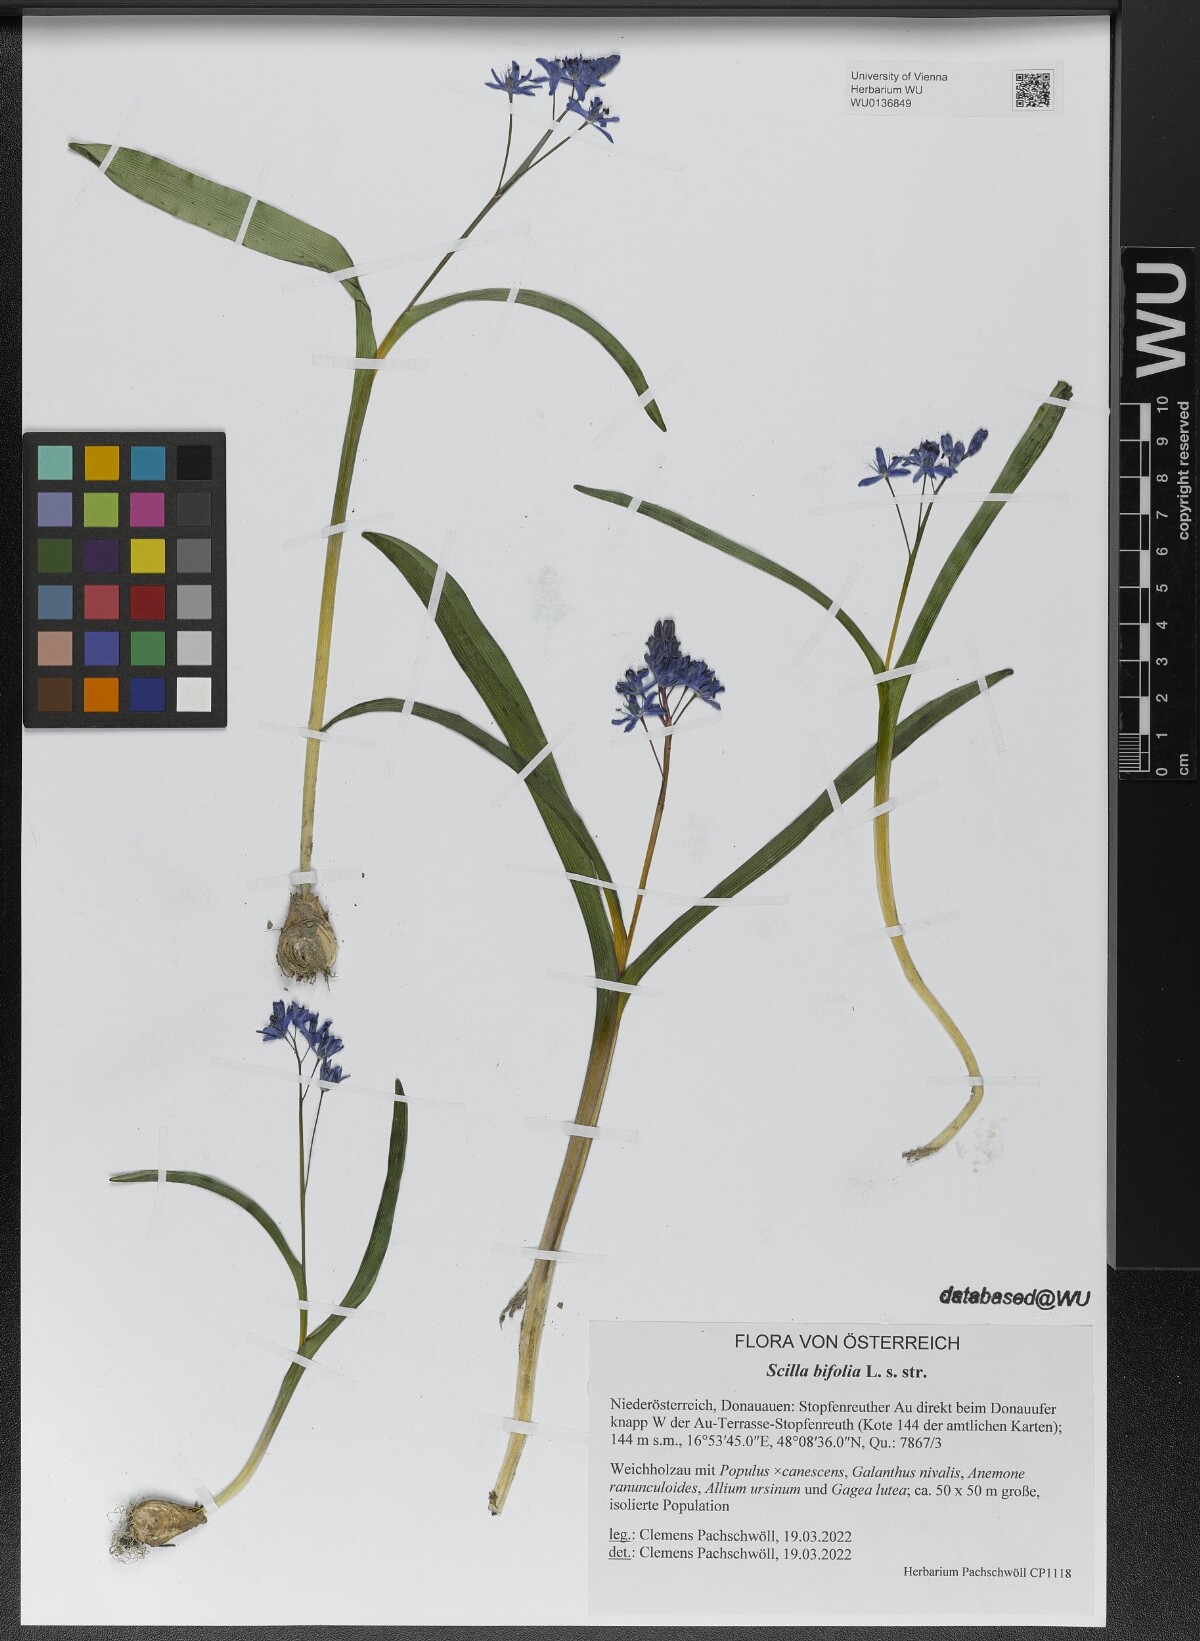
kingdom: Plantae
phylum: Tracheophyta
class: Liliopsida
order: Asparagales
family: Asparagaceae
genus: Scilla
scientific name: Scilla bifolia
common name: Alpine squill
